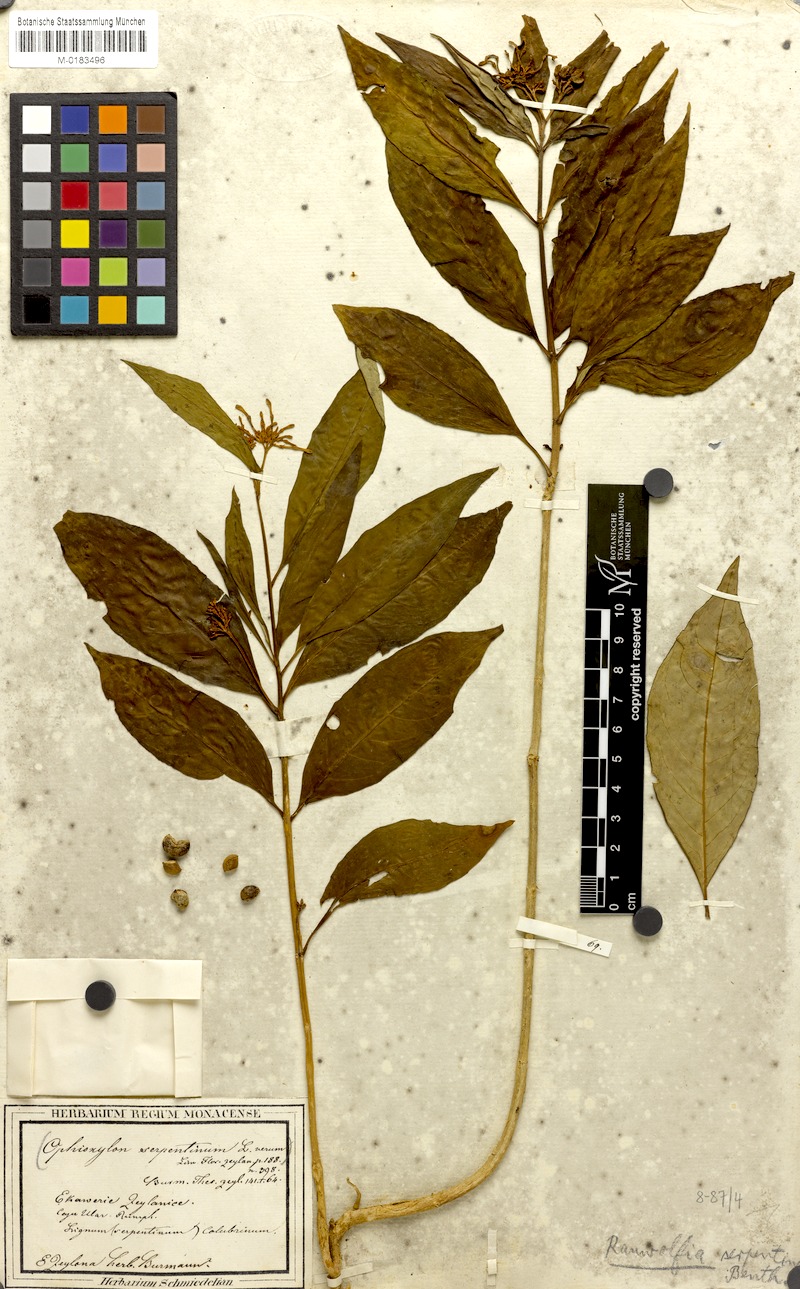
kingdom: Plantae
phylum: Tracheophyta
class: Magnoliopsida
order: Gentianales
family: Apocynaceae
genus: Rauvolfia
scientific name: Rauvolfia serpentina
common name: Ajmaline
